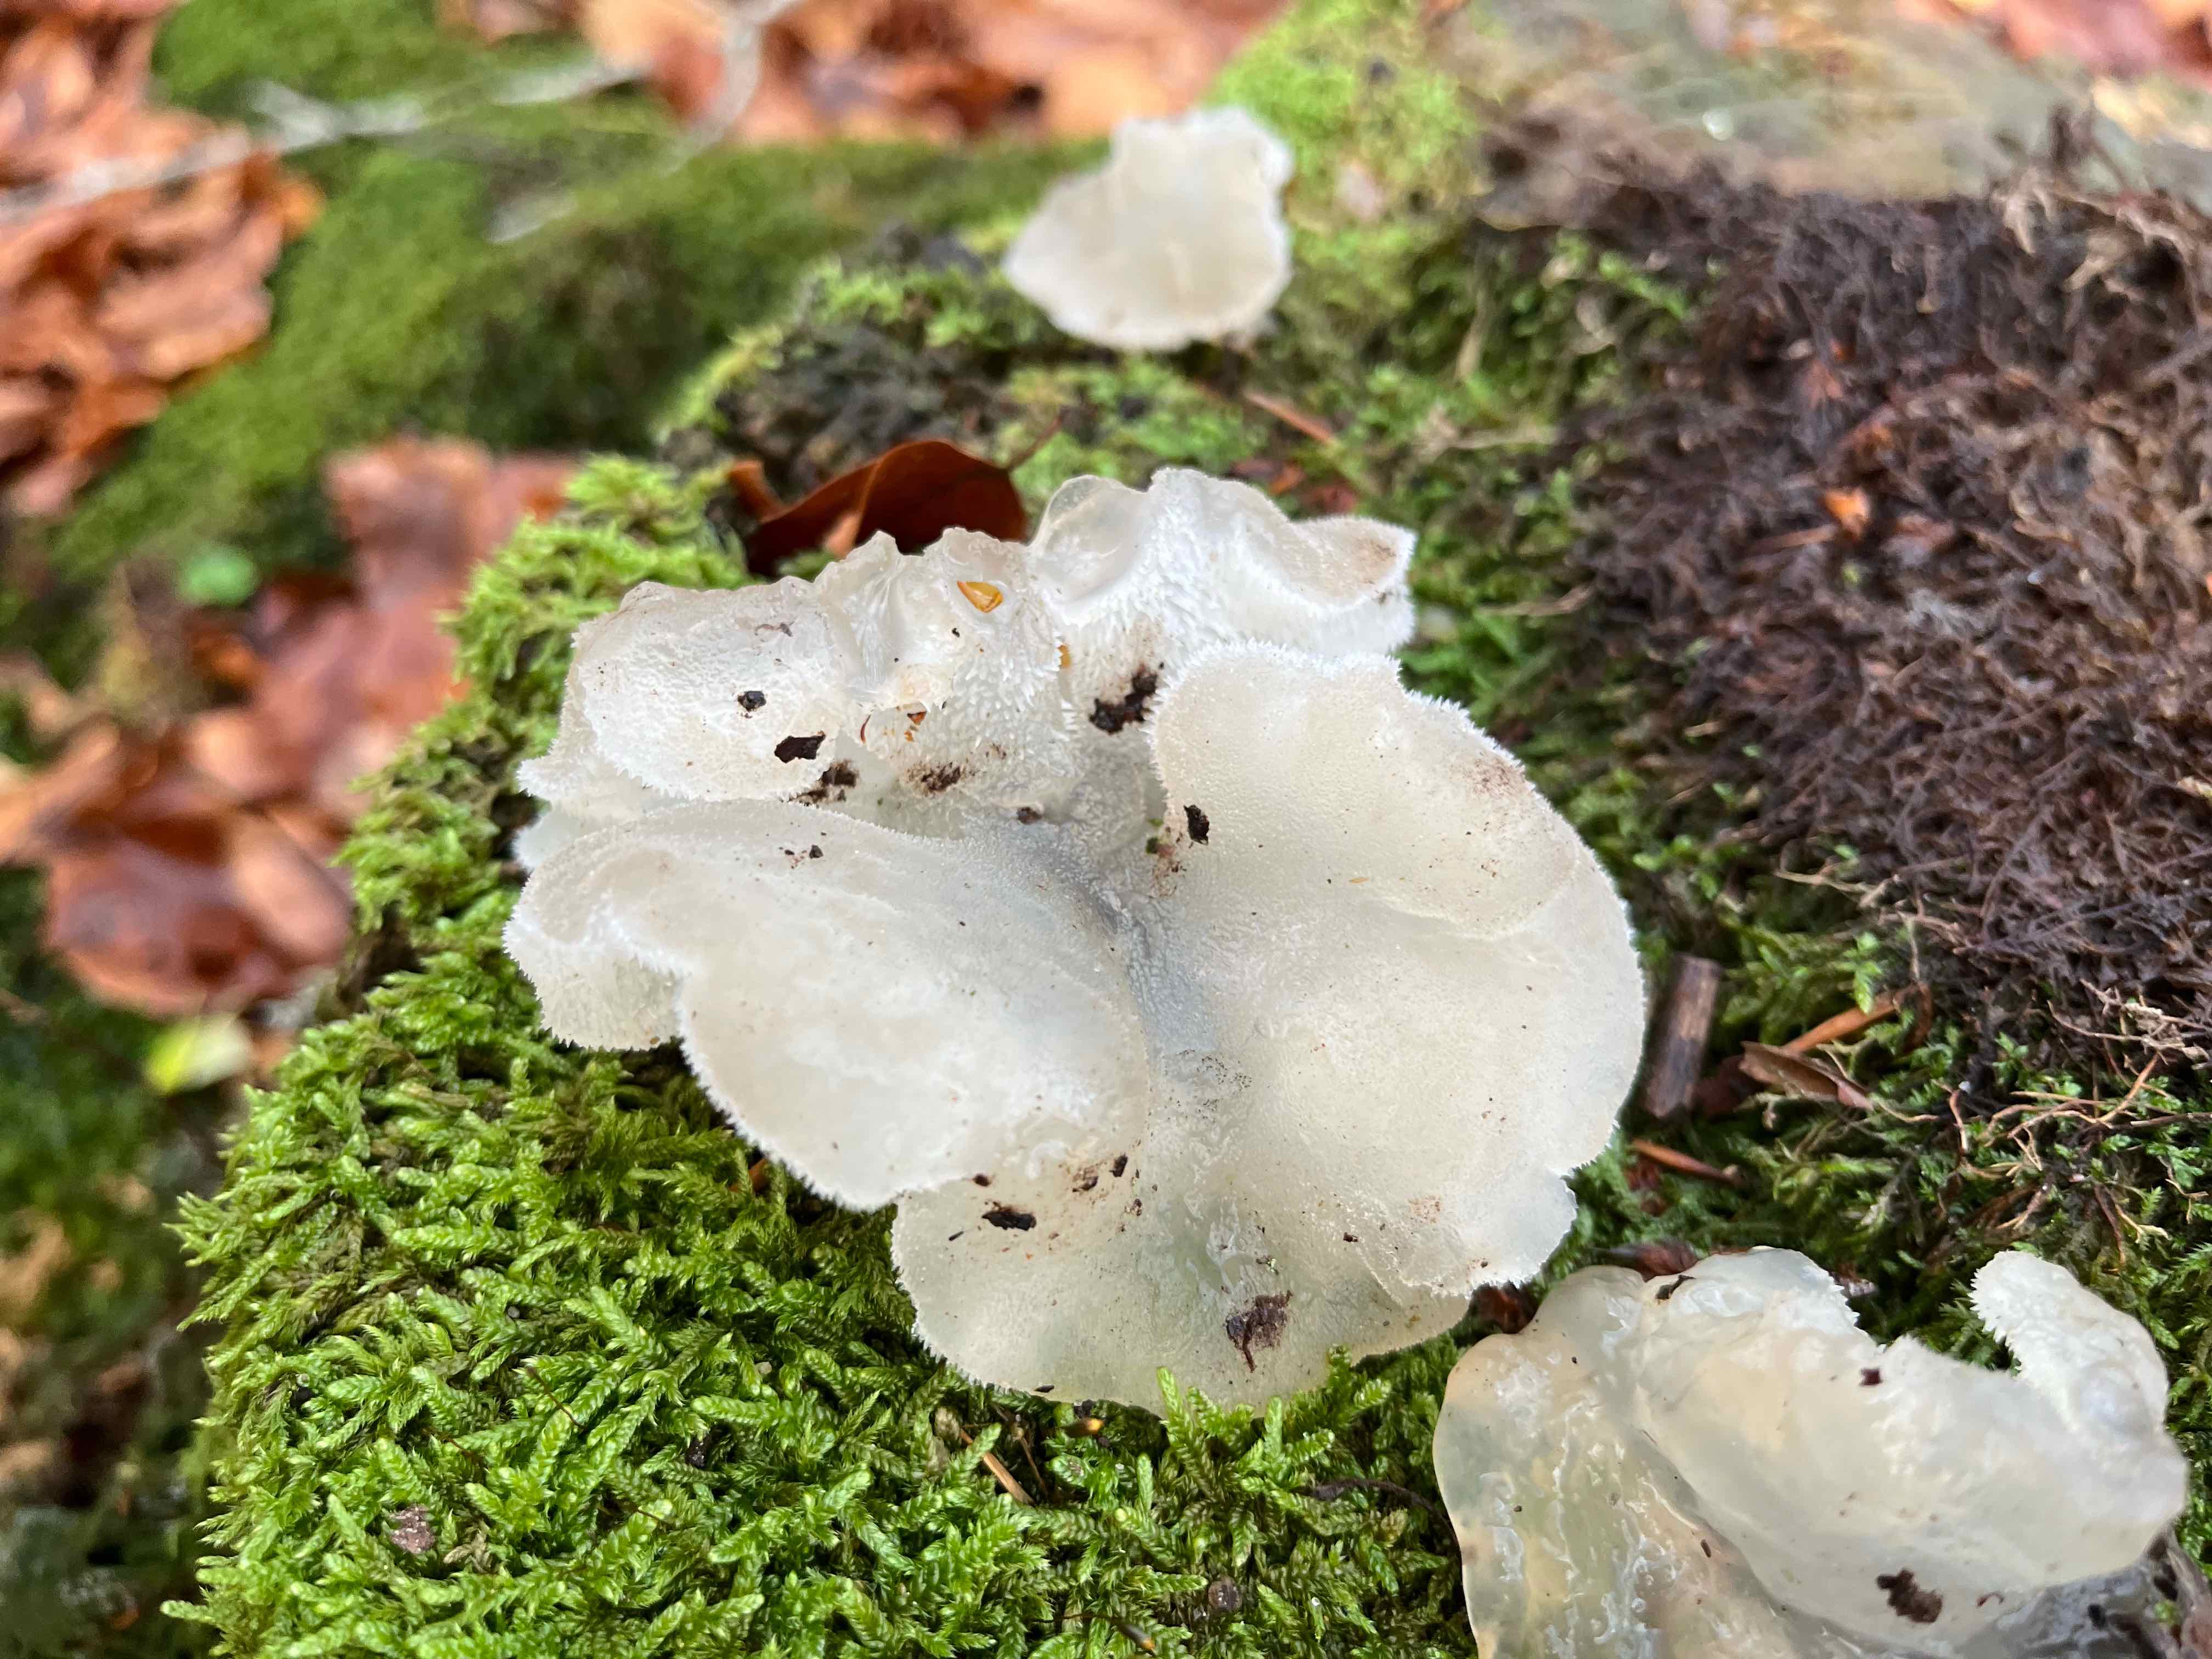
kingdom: Fungi
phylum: Basidiomycota
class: Agaricomycetes
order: Auriculariales
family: Hyaloriaceae
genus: Myxarium
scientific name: Myxarium nucleatum
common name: klar bævretop
